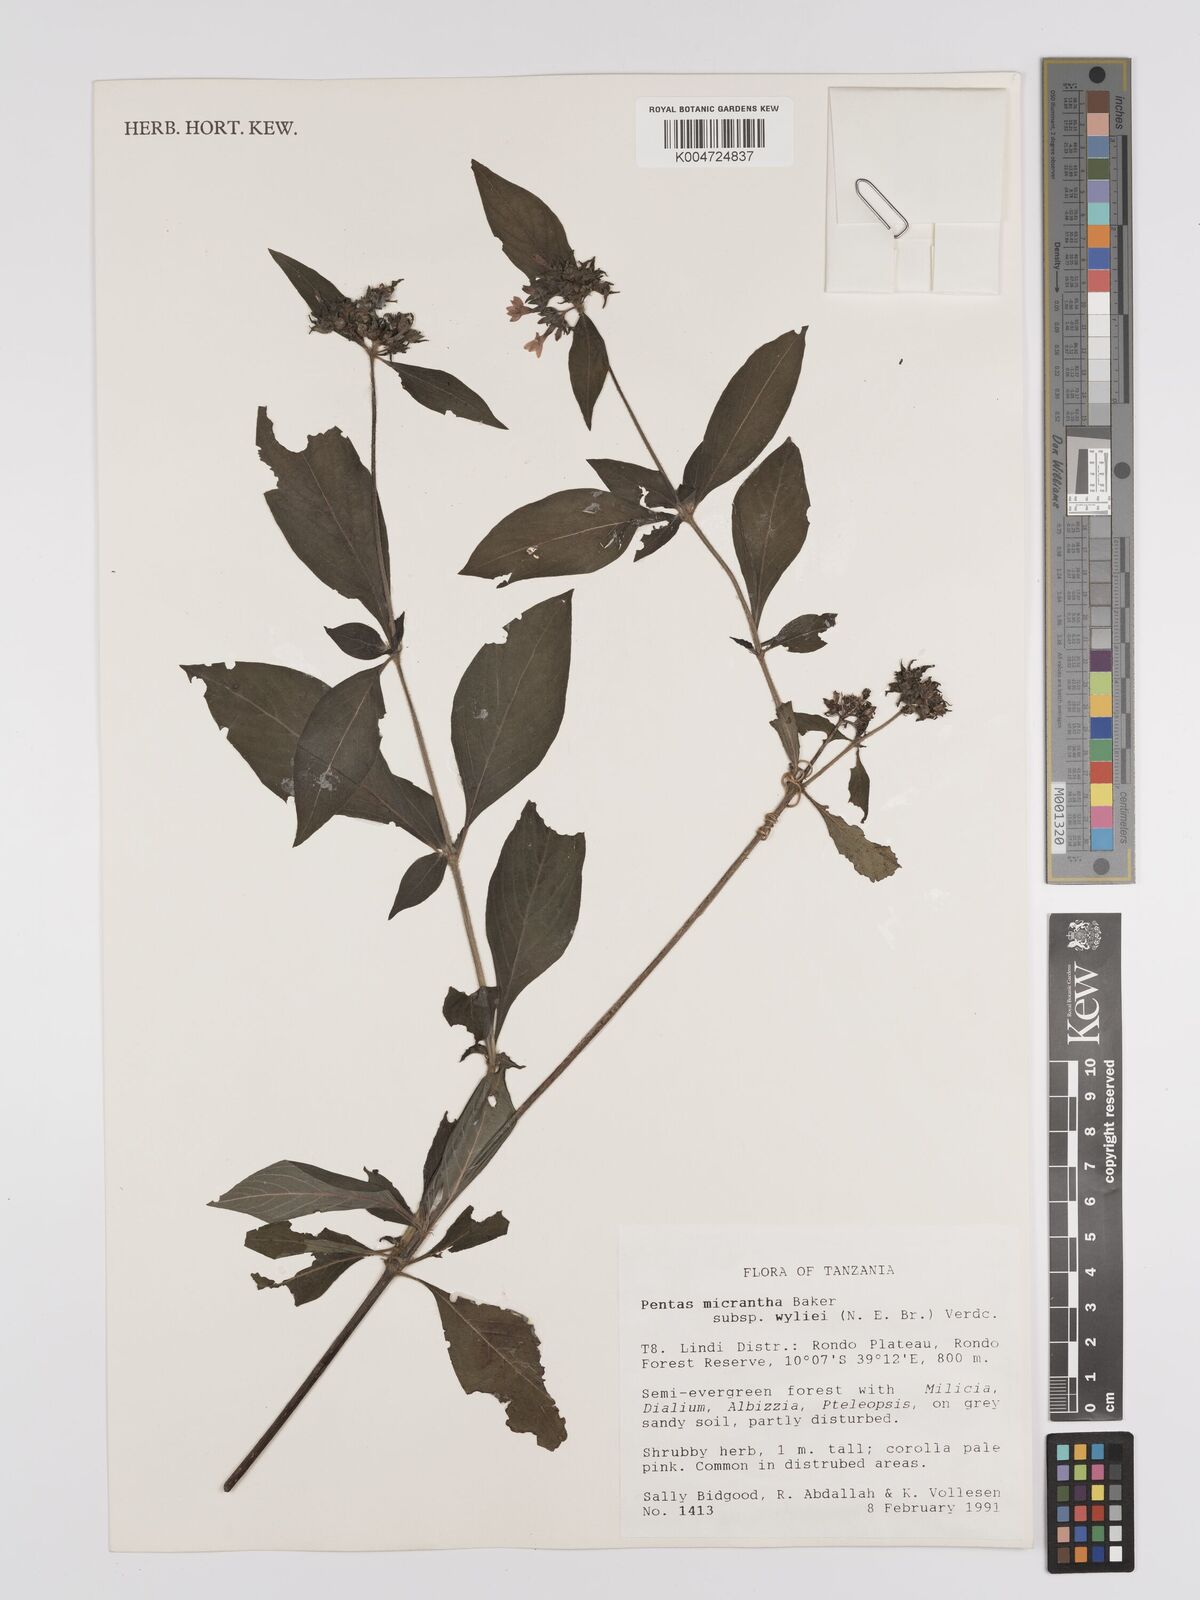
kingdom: Plantae
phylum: Tracheophyta
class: Magnoliopsida
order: Gentianales
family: Rubiaceae
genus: Pentas
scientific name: Pentas micrantha
